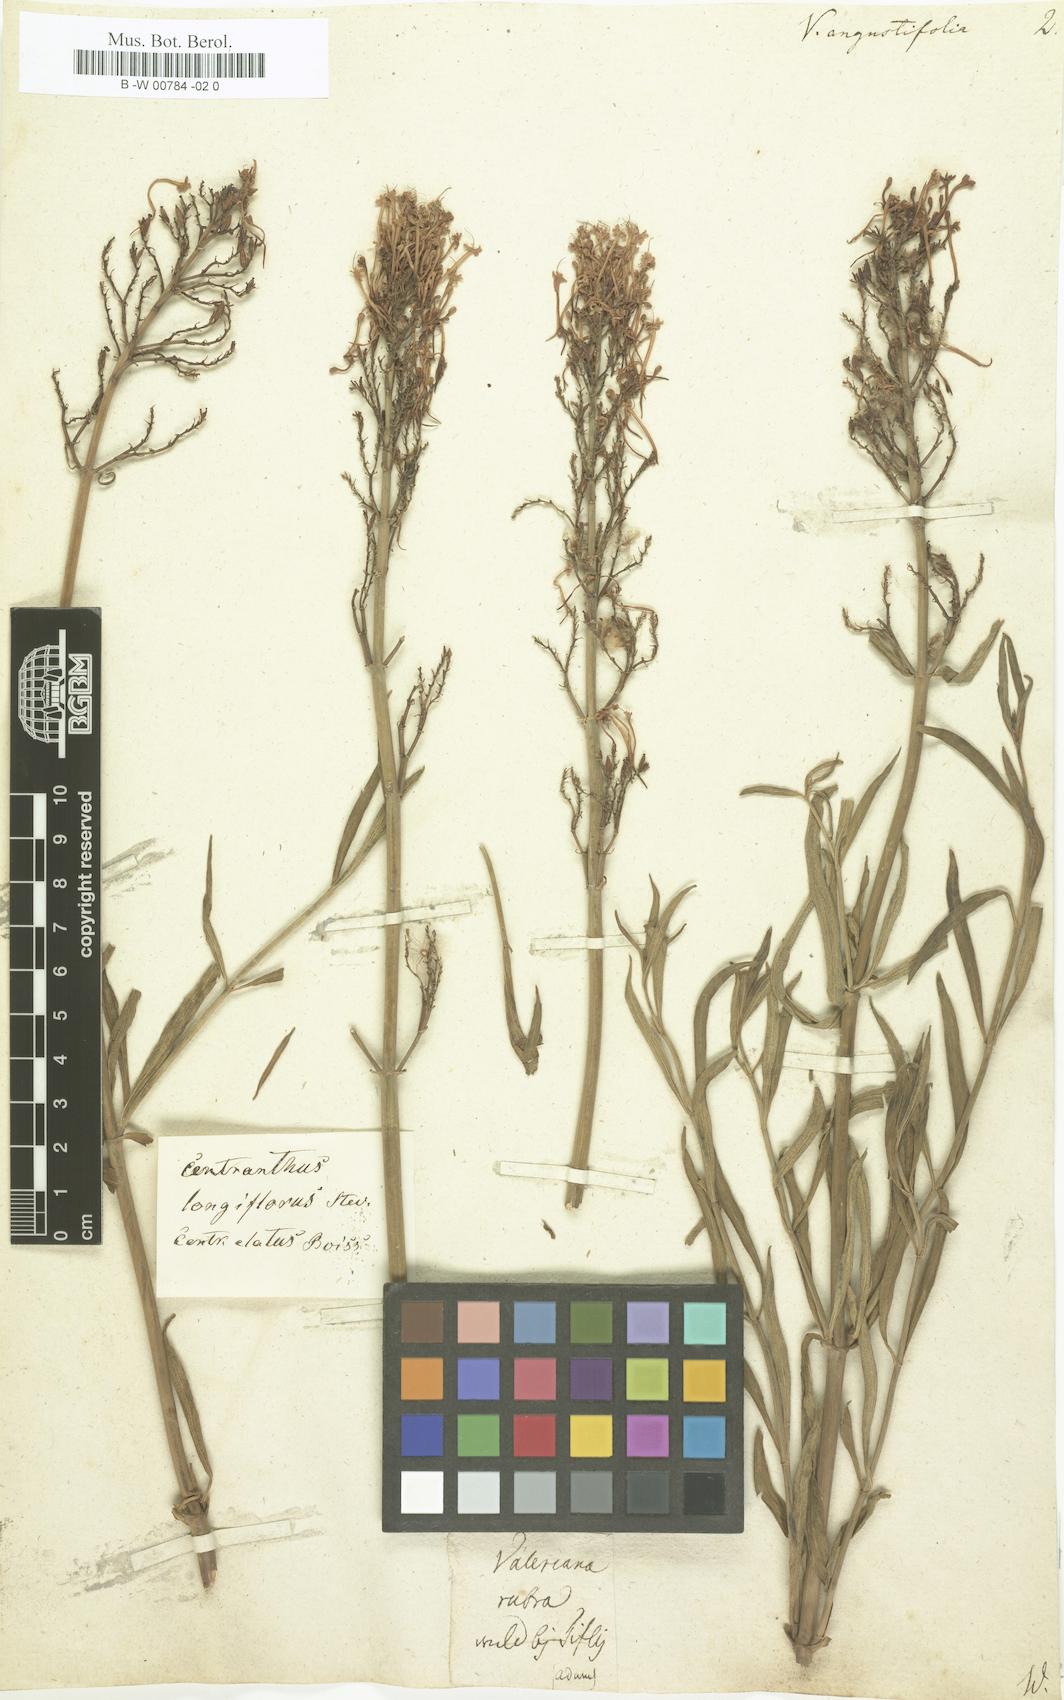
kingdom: Plantae
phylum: Tracheophyta
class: Magnoliopsida
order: Dipsacales
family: Caprifoliaceae
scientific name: Caprifoliaceae
